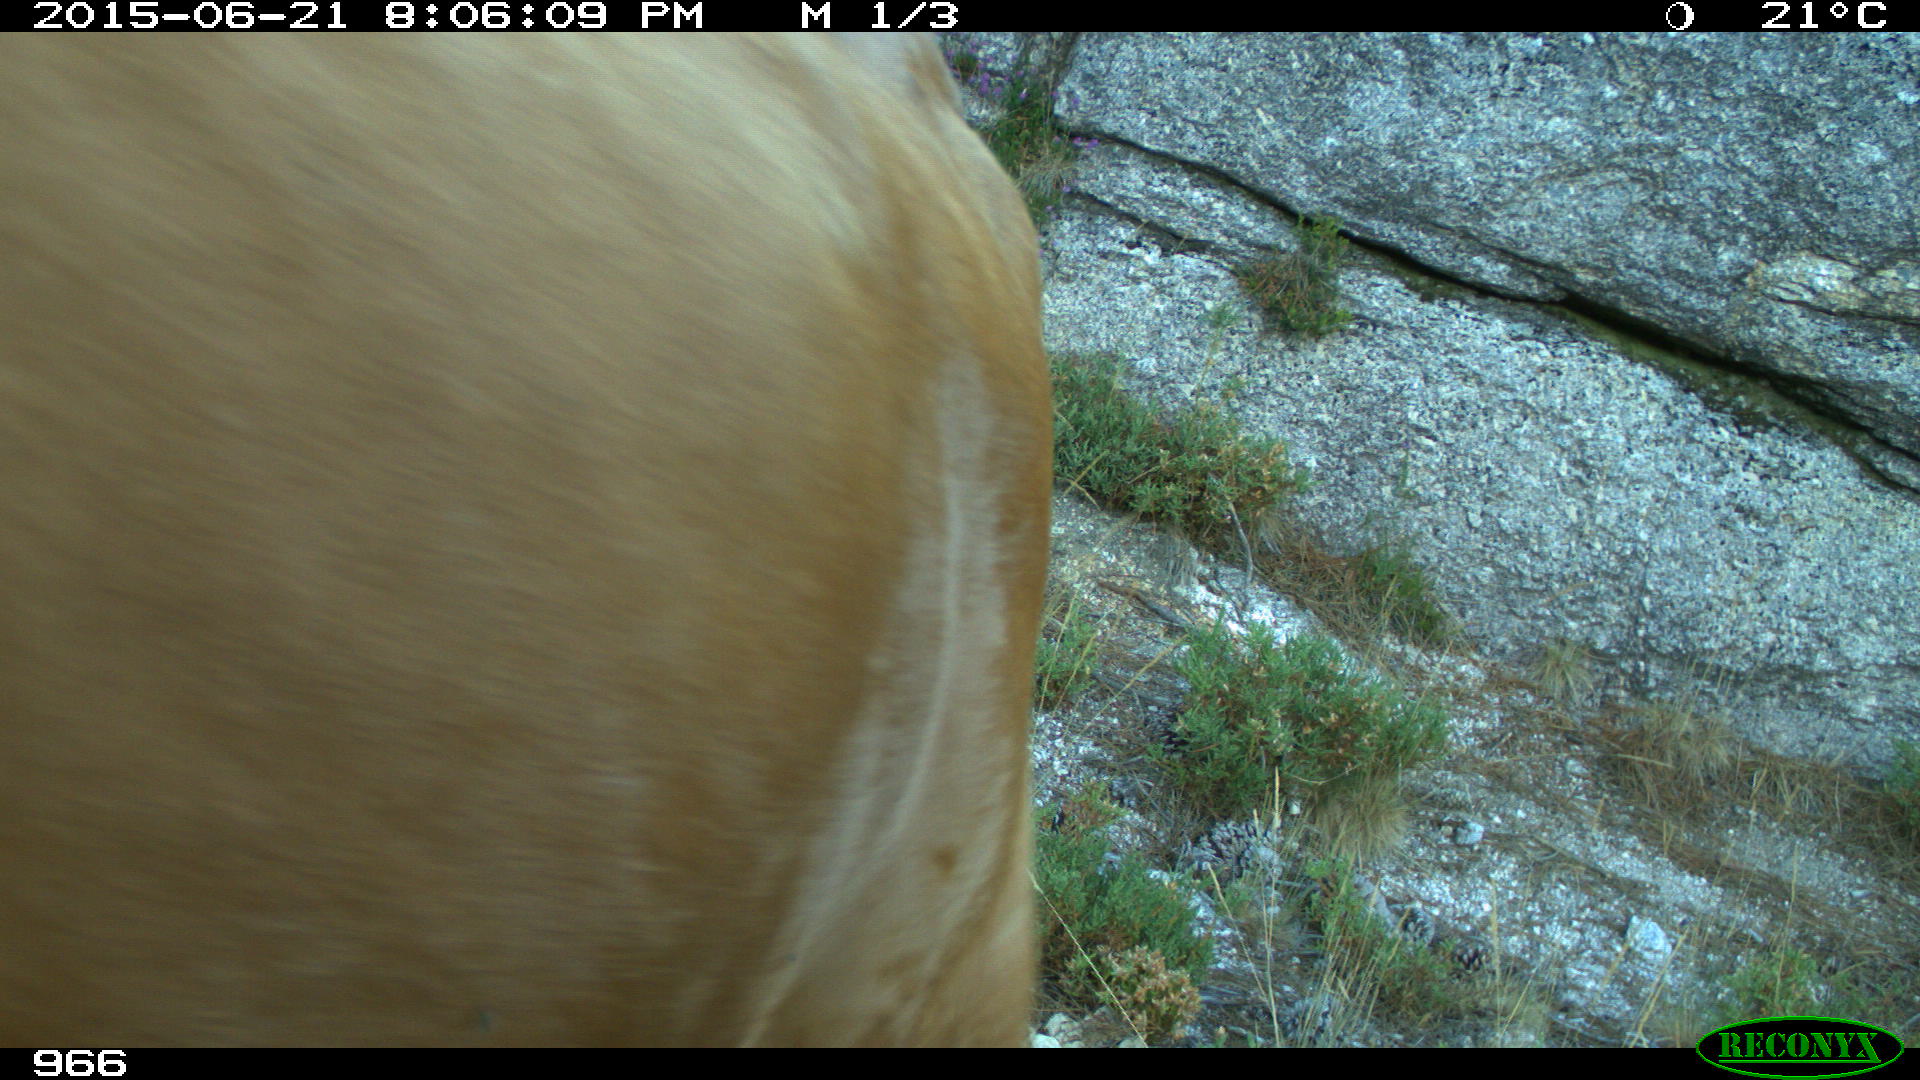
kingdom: Animalia
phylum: Chordata
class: Mammalia
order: Artiodactyla
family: Bovidae
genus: Bos
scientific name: Bos taurus
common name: Domesticated cattle
